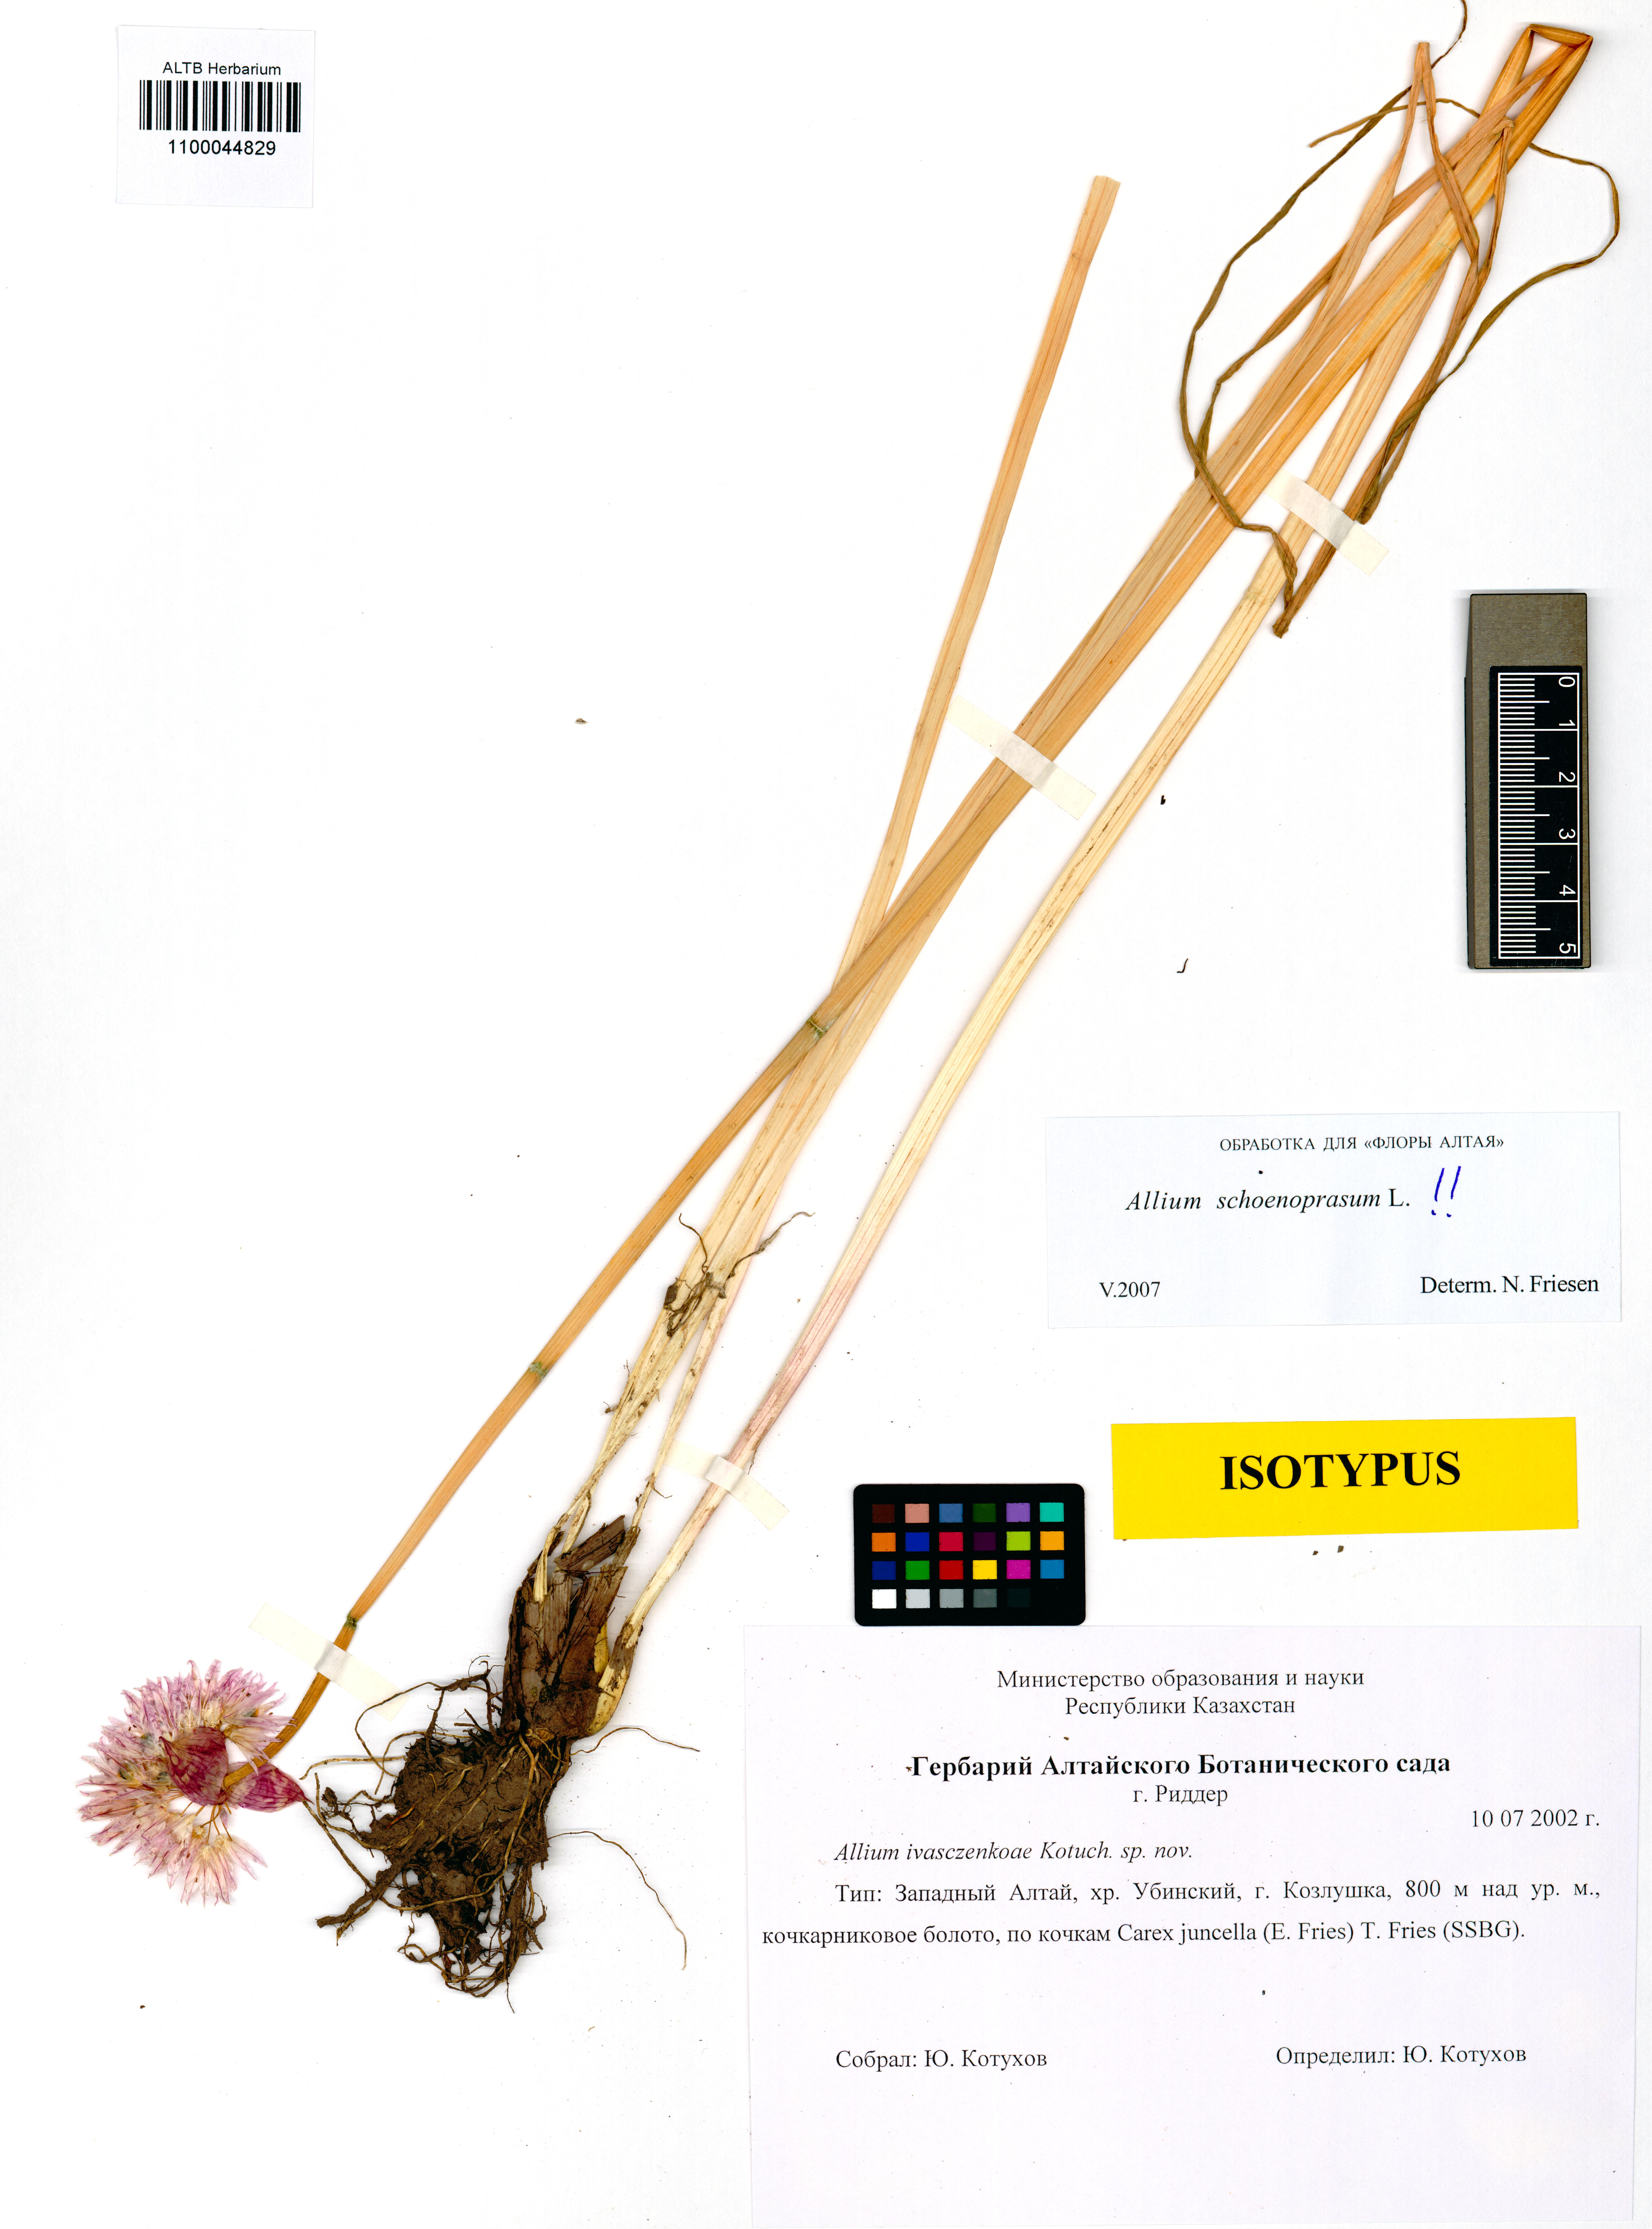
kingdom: Plantae
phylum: Tracheophyta
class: Liliopsida
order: Asparagales
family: Amaryllidaceae
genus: Allium
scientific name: Allium schoenoprasum
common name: Chives
